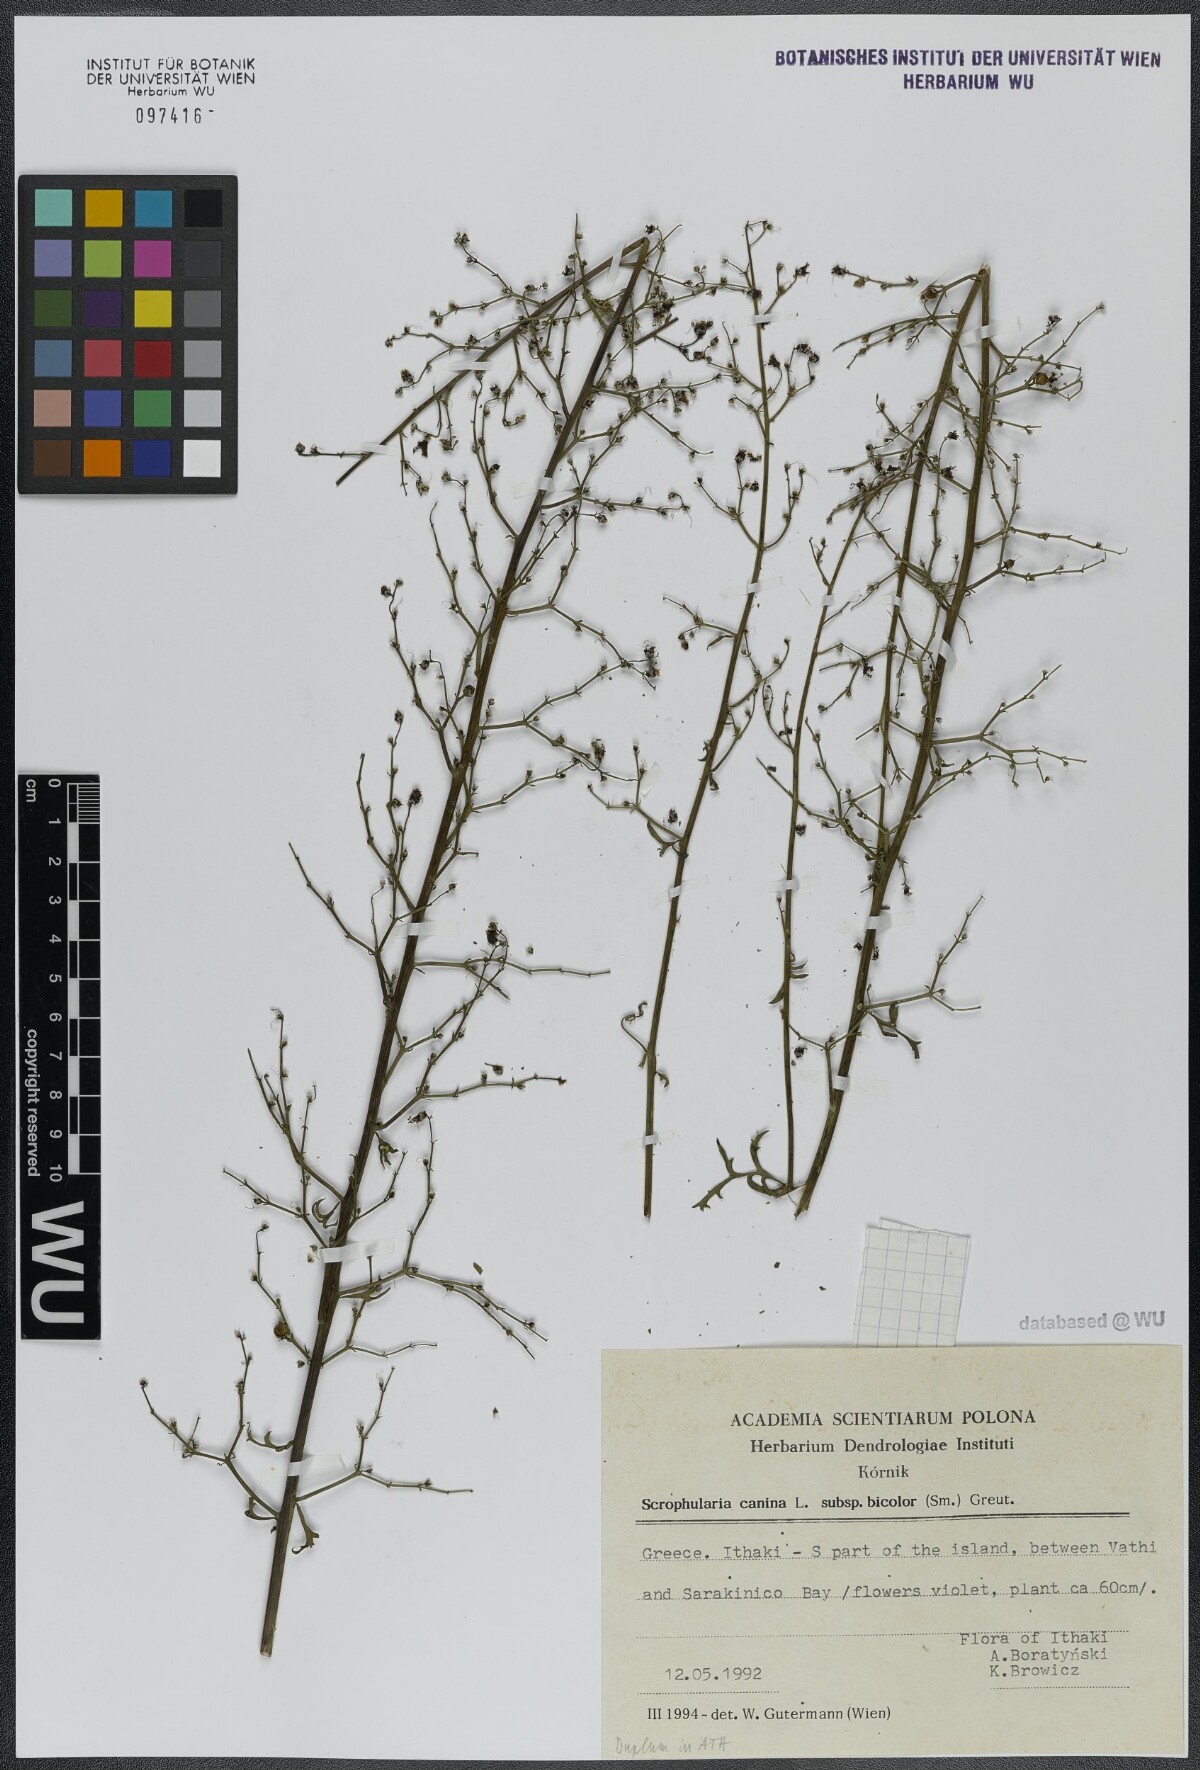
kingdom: Plantae
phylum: Tracheophyta
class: Magnoliopsida
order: Lamiales
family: Scrophulariaceae
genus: Scrophularia
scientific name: Scrophularia canina
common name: French figwort
